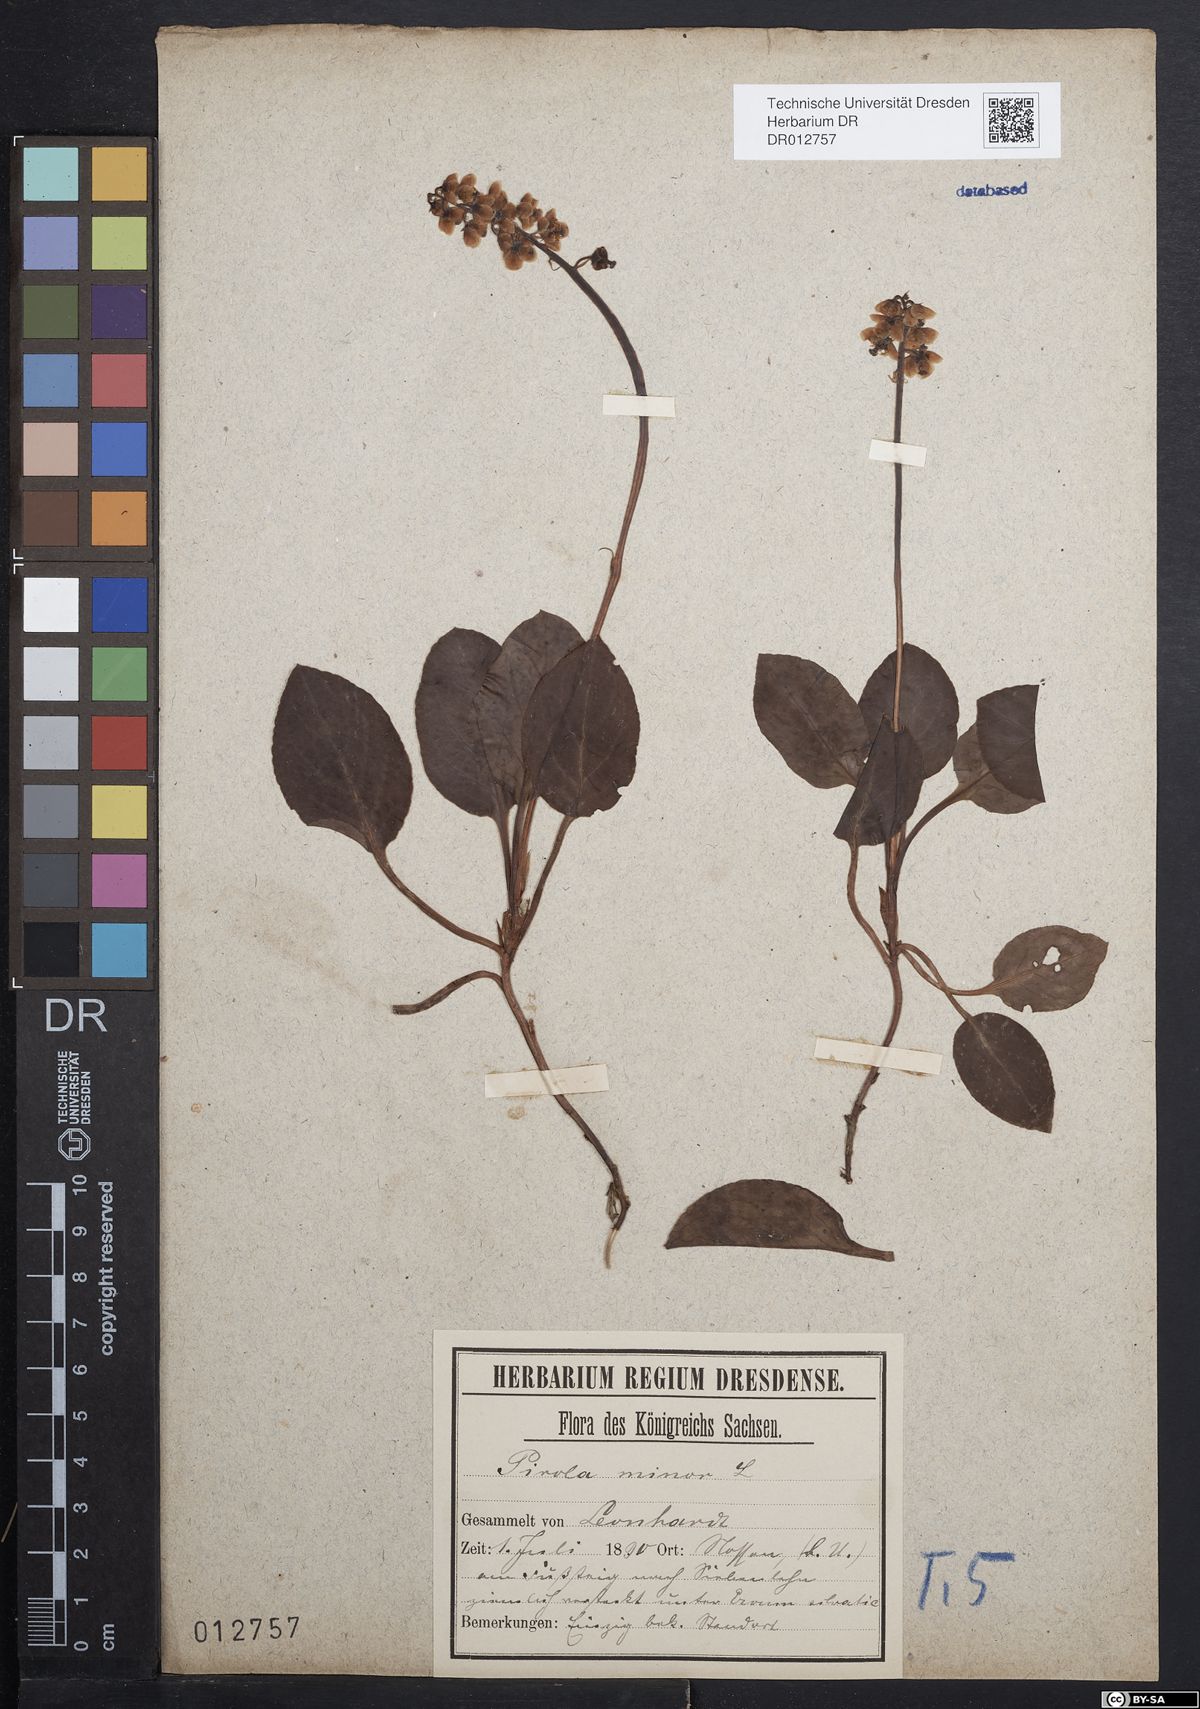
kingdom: Plantae
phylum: Tracheophyta
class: Magnoliopsida
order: Ericales
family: Ericaceae
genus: Pyrola
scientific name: Pyrola minor
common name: Common wintergreen
